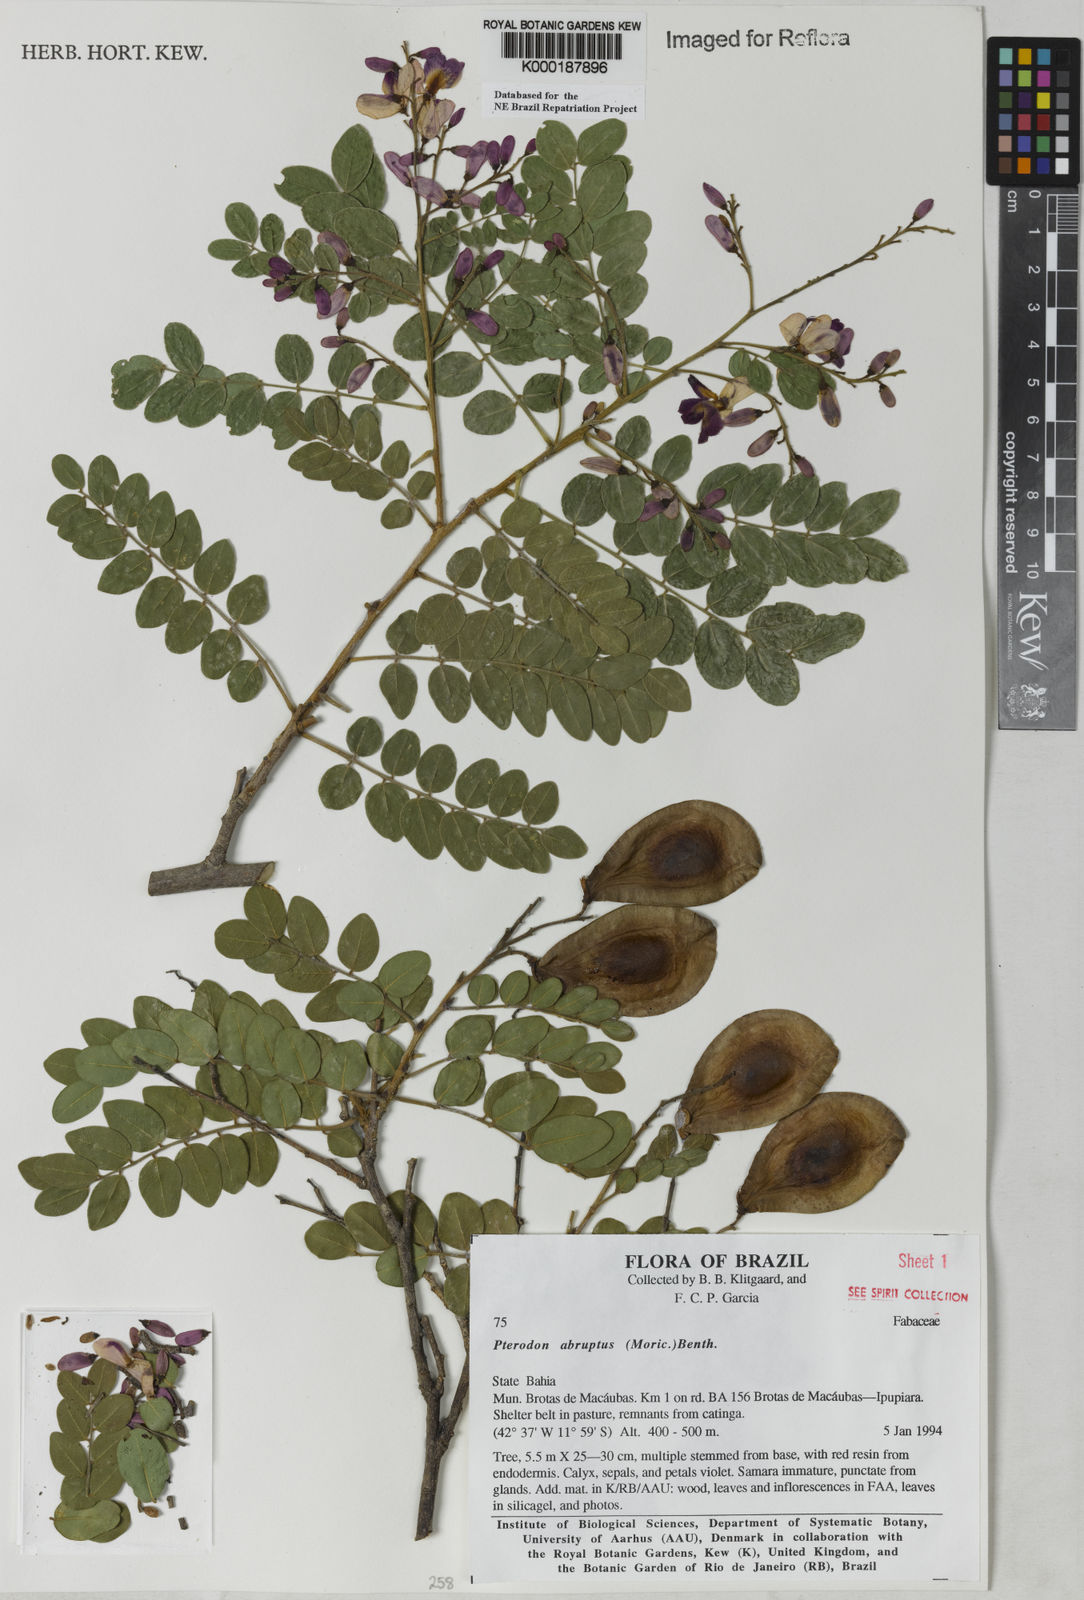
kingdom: Plantae
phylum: Tracheophyta
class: Magnoliopsida
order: Fabales
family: Fabaceae
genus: Pterodon
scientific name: Pterodon abruptus
